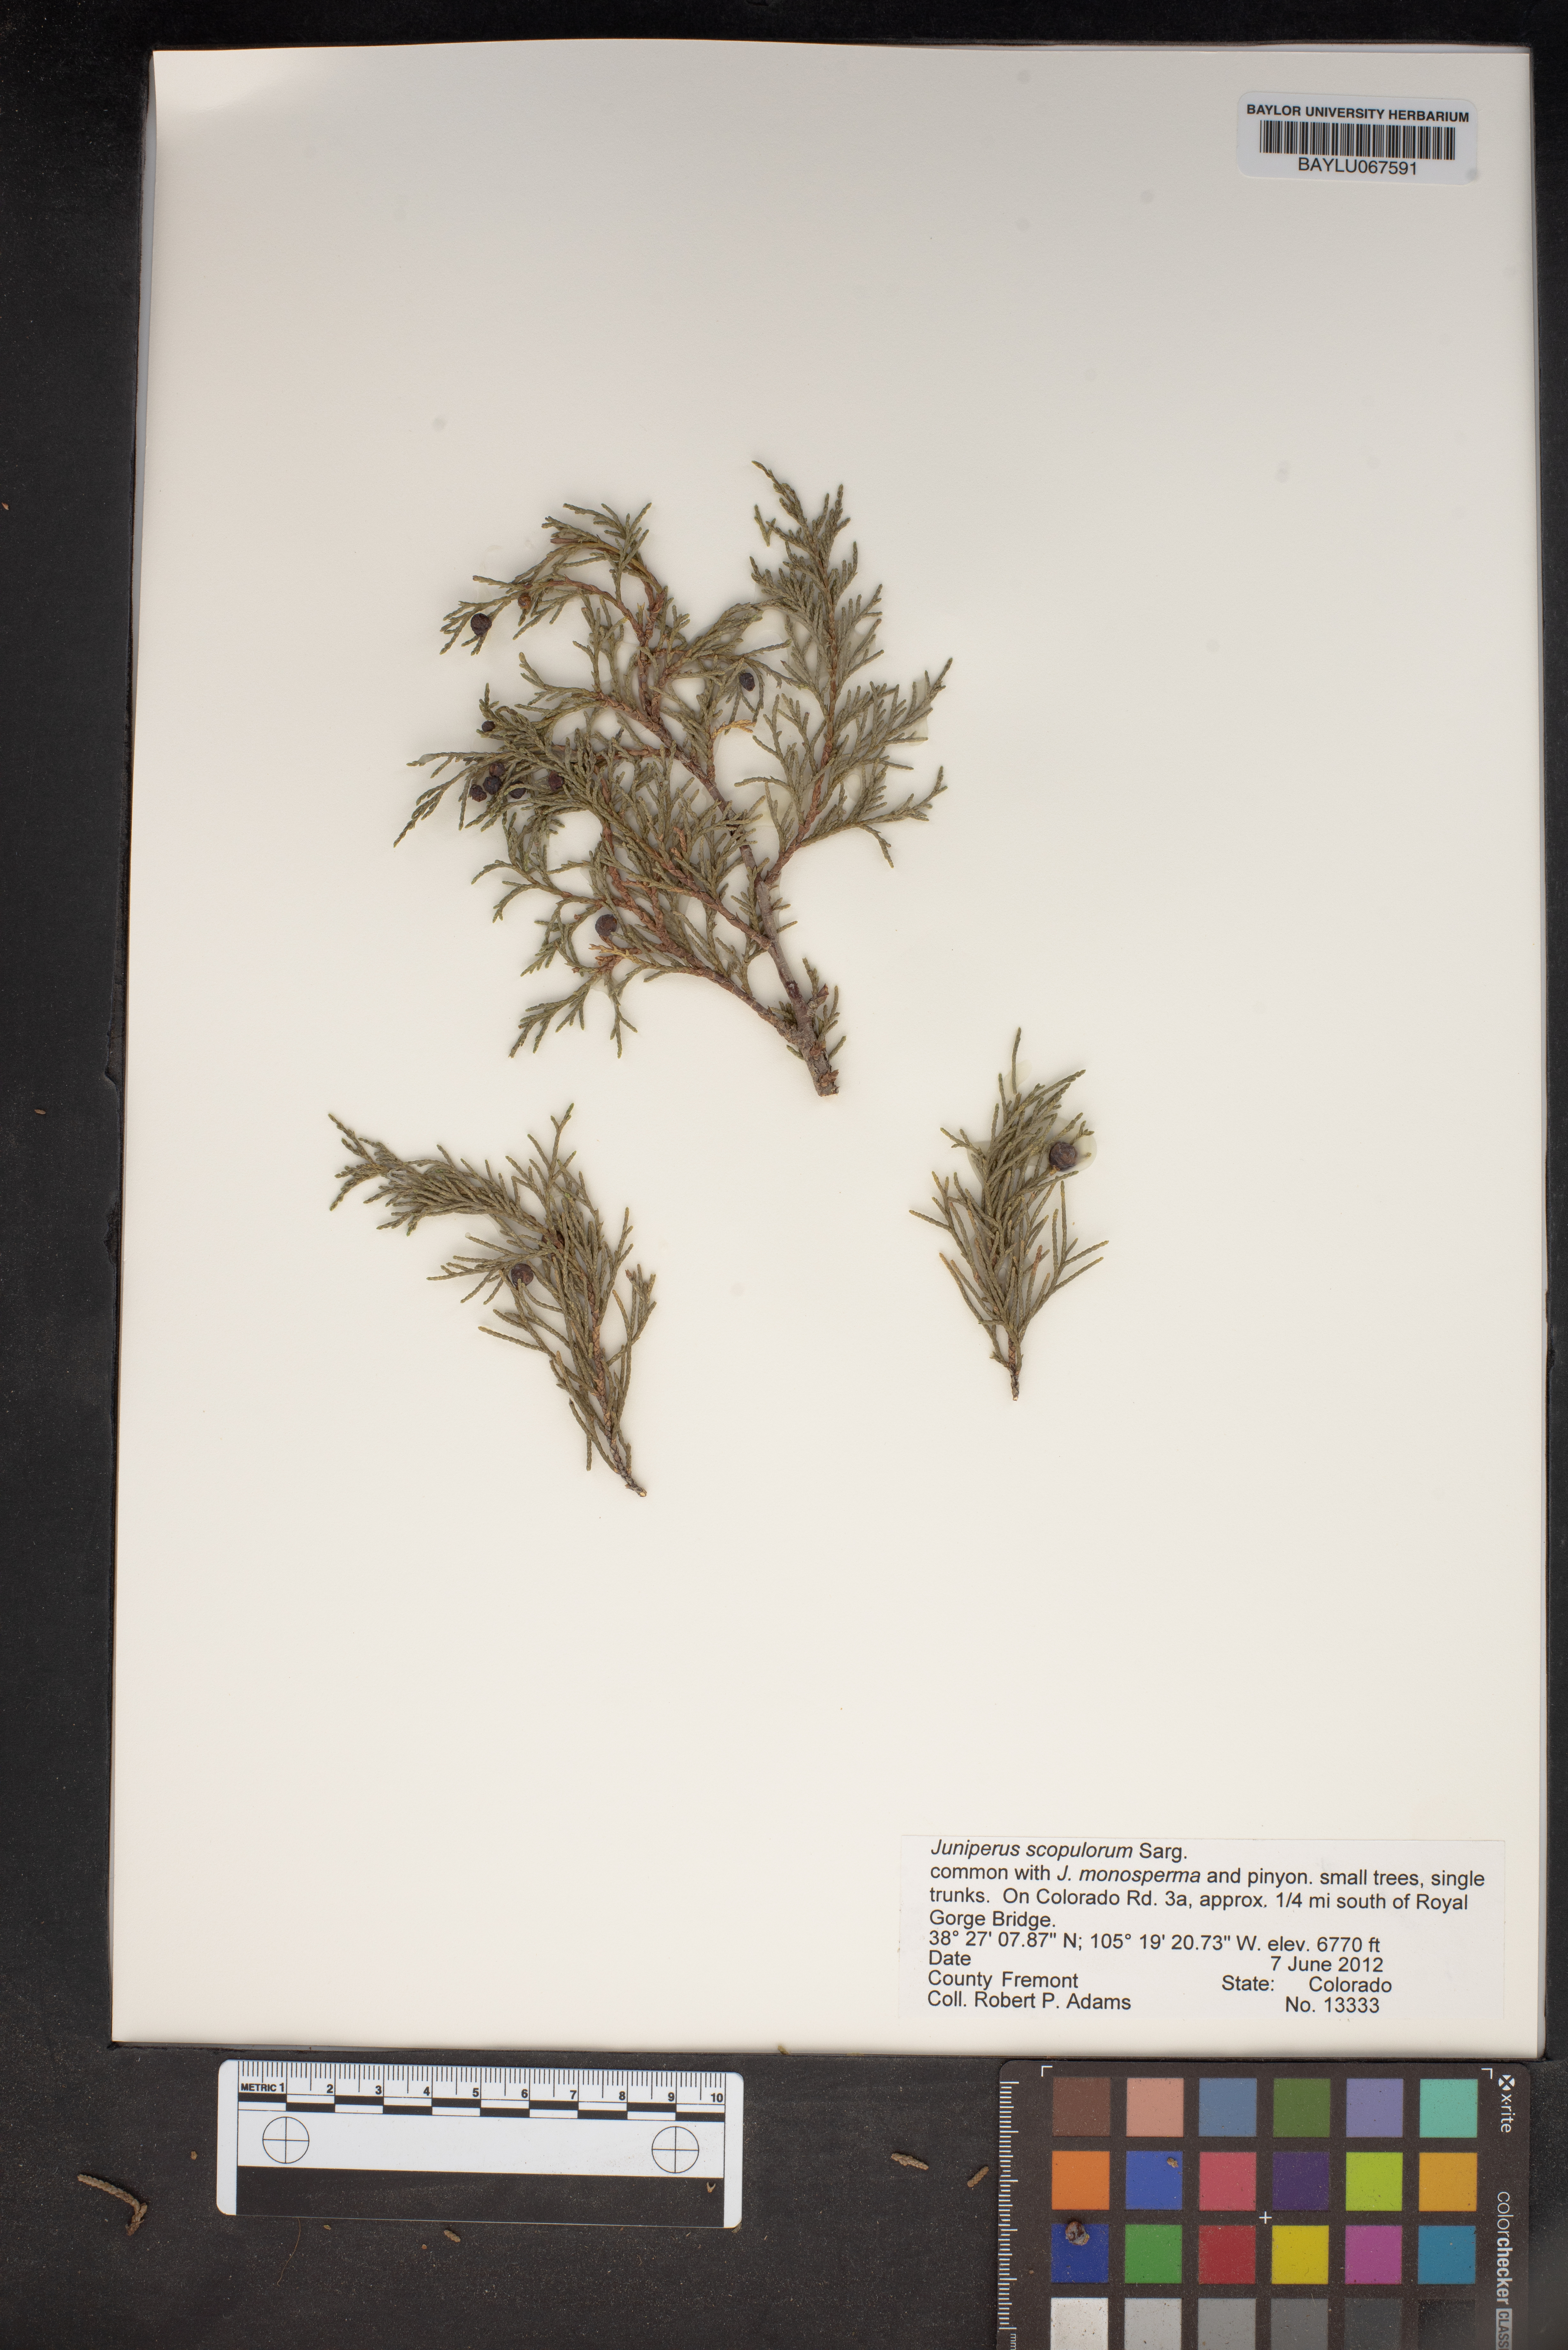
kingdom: Plantae
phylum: Tracheophyta
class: Pinopsida
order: Pinales
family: Cupressaceae
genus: Juniperus
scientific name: Juniperus scopulorum
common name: Rocky mountain juniper
